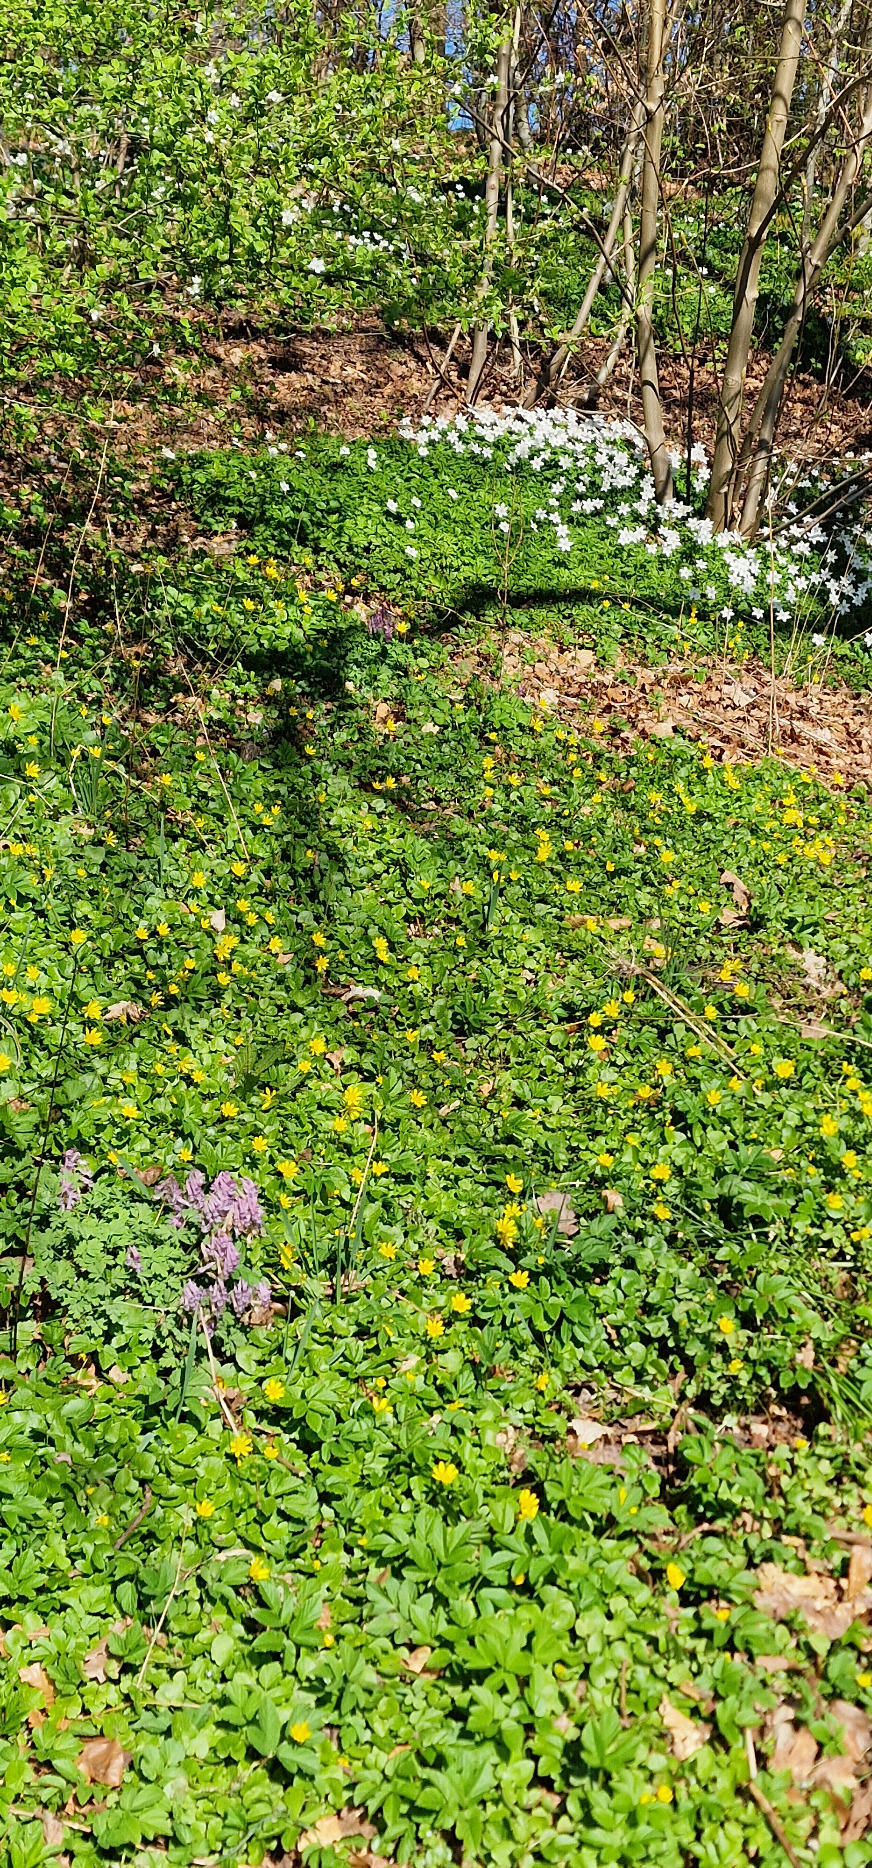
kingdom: Plantae
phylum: Tracheophyta
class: Magnoliopsida
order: Ranunculales
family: Ranunculaceae
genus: Ficaria
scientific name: Ficaria verna
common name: Vorterod
